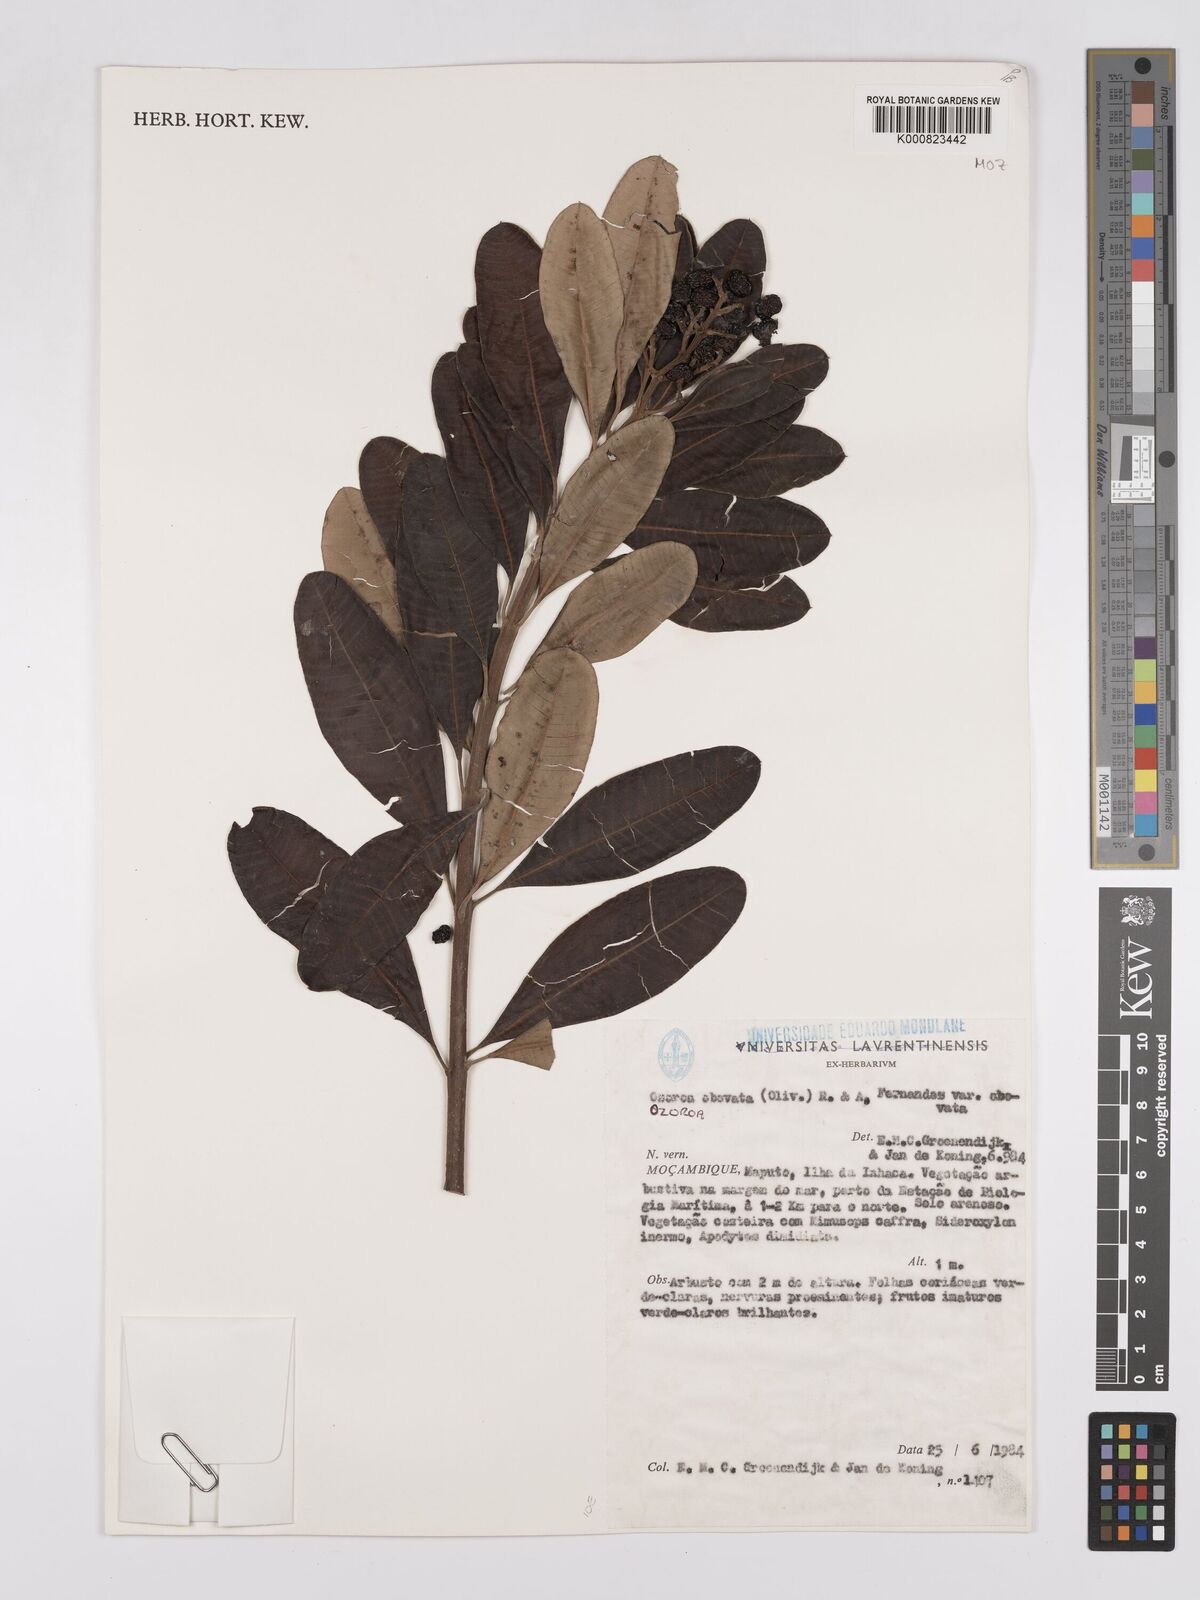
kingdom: Plantae
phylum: Tracheophyta
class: Magnoliopsida
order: Sapindales
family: Anacardiaceae
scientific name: Anacardiaceae
